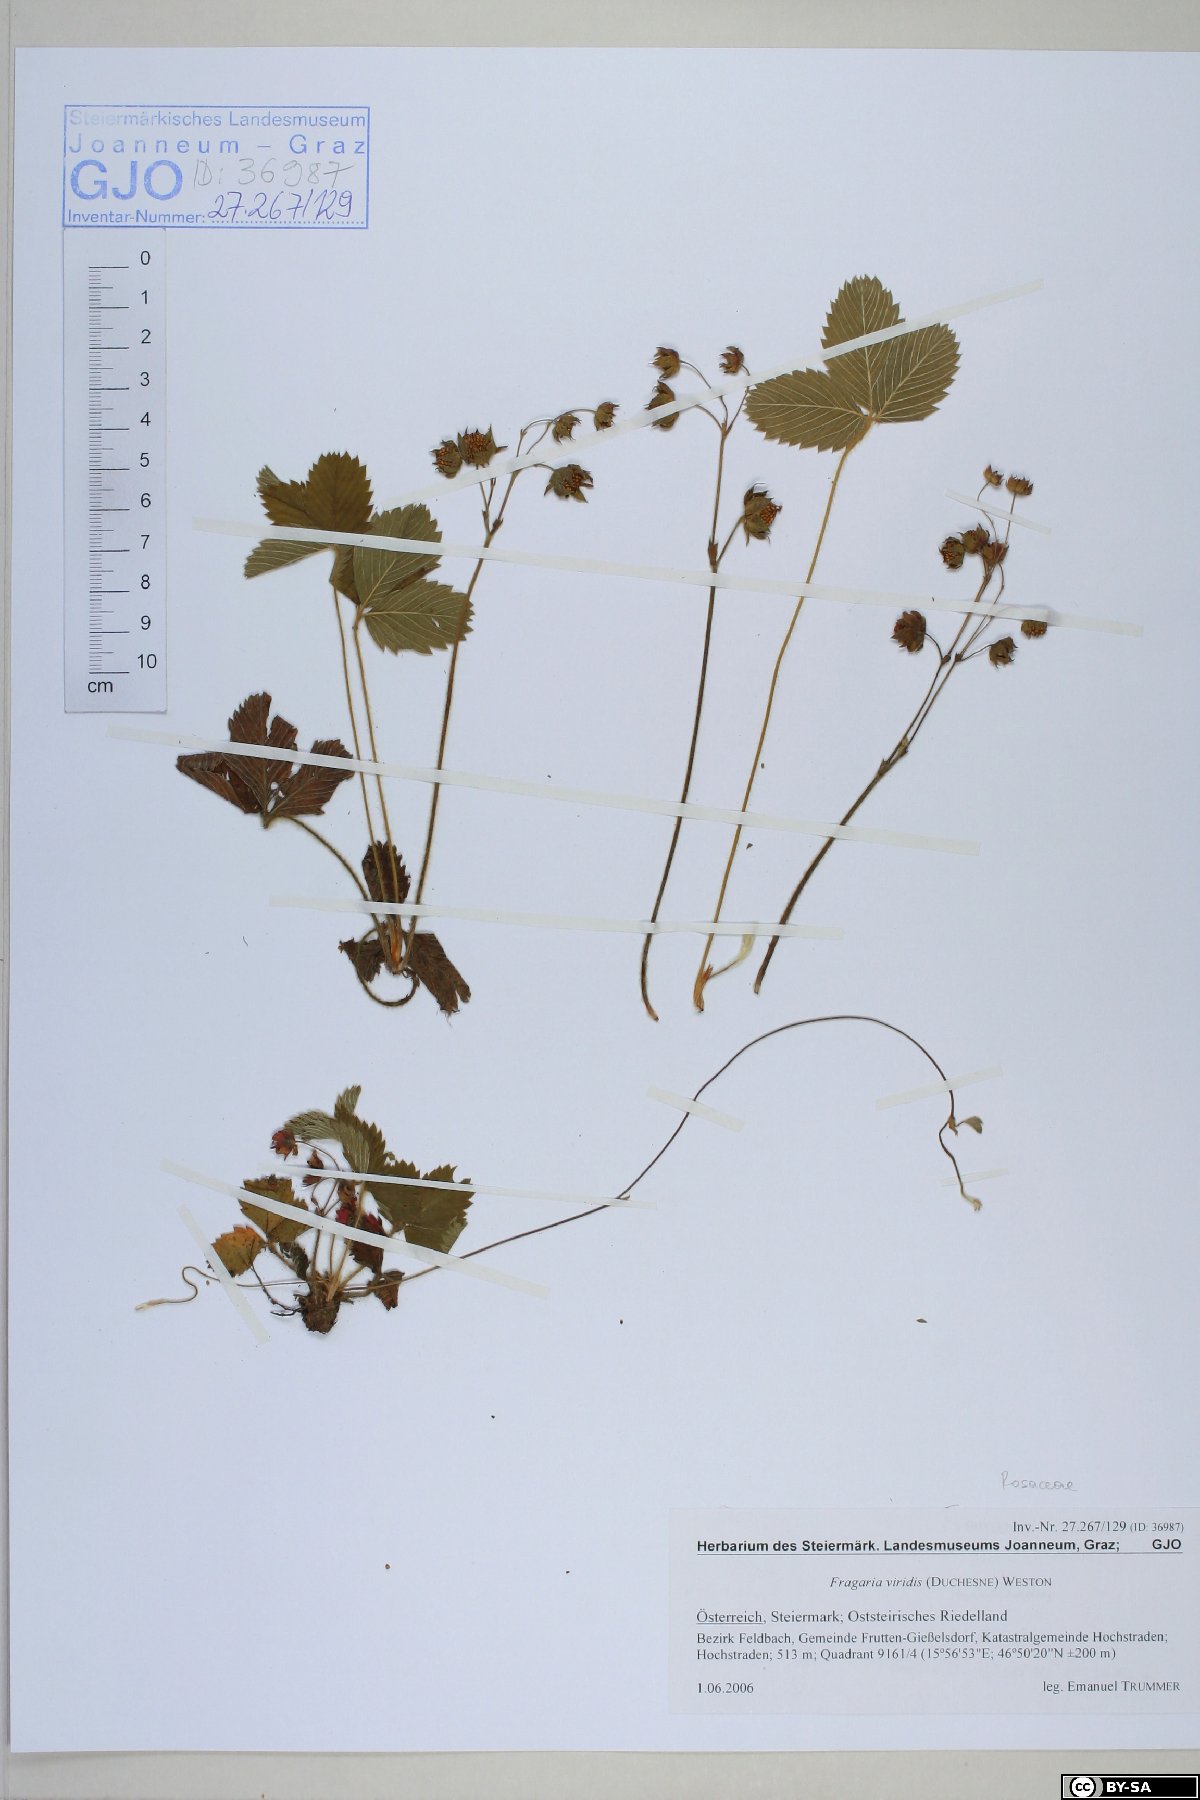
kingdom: Plantae
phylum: Tracheophyta
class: Magnoliopsida
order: Rosales
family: Rosaceae
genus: Fragaria
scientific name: Fragaria viridis
